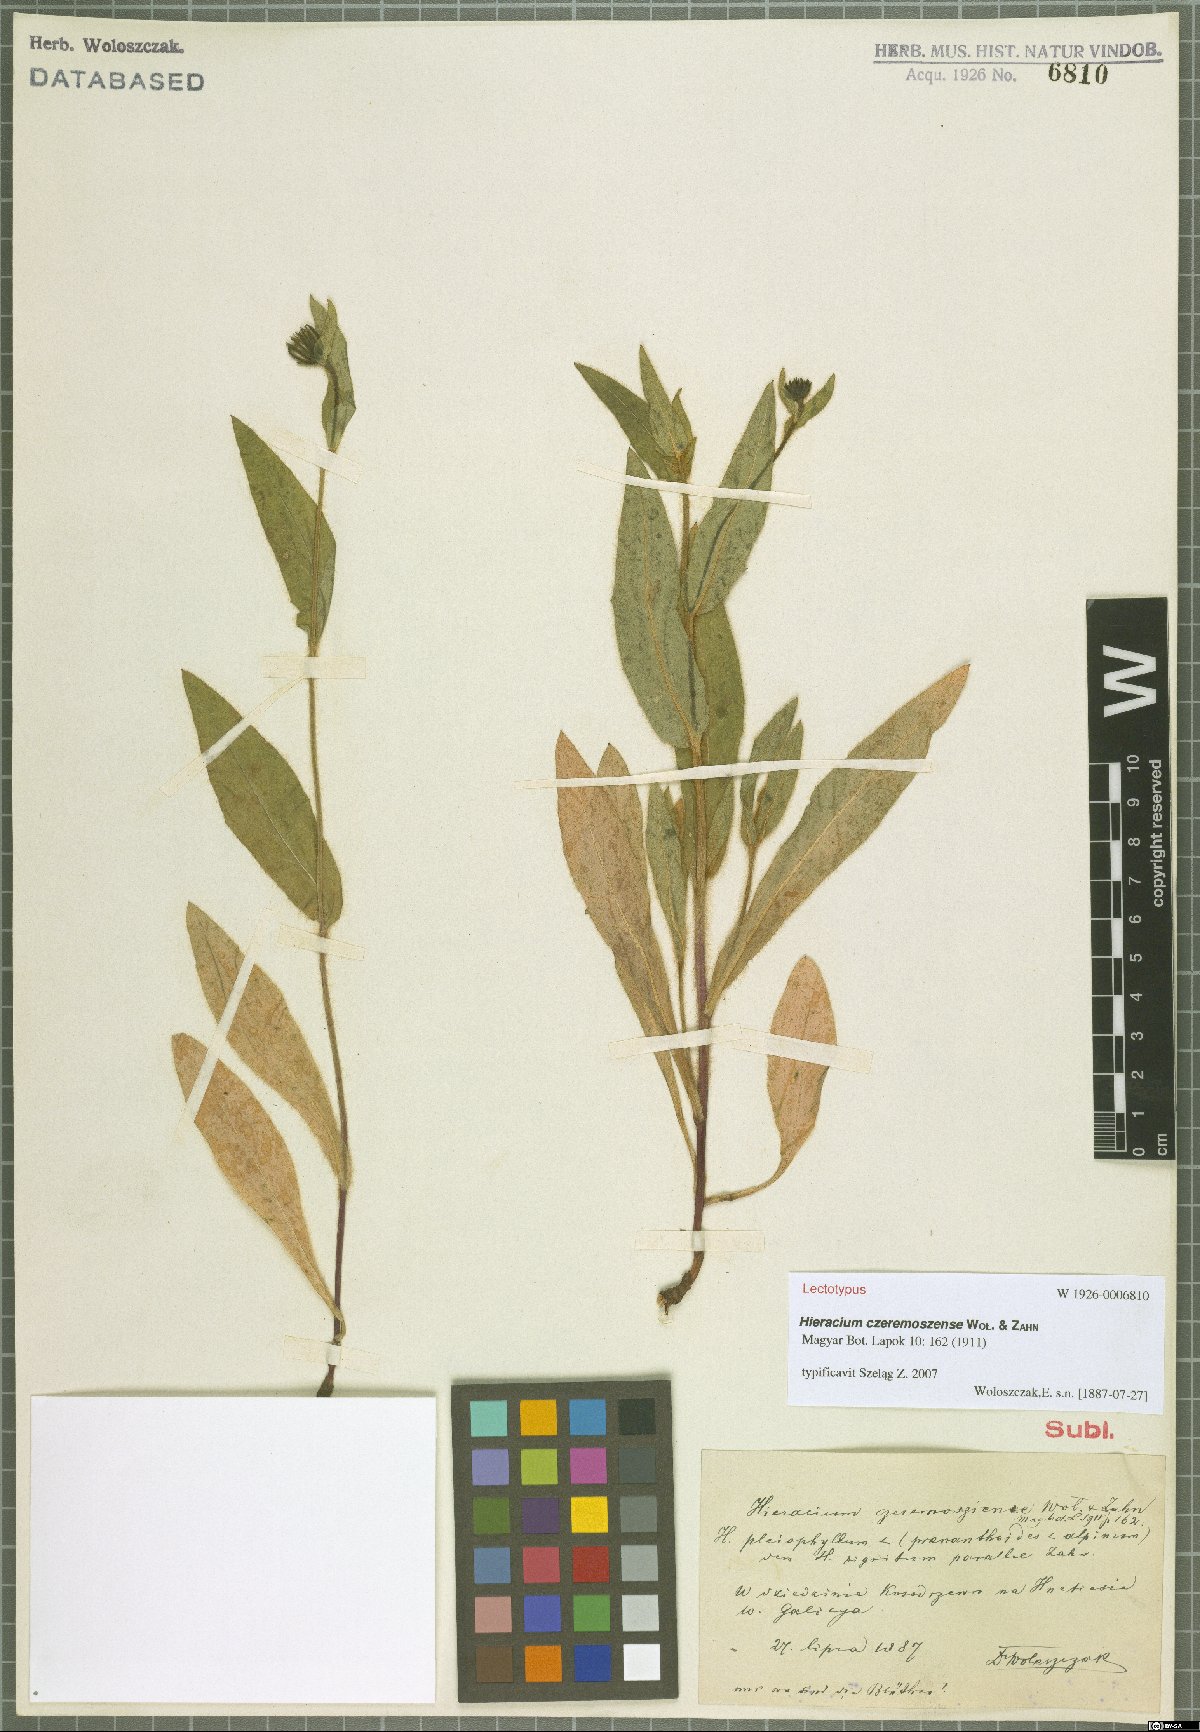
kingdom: Plantae
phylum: Tracheophyta
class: Magnoliopsida
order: Asterales
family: Asteraceae
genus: Hieracium
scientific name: Hieracium czeremoszense
